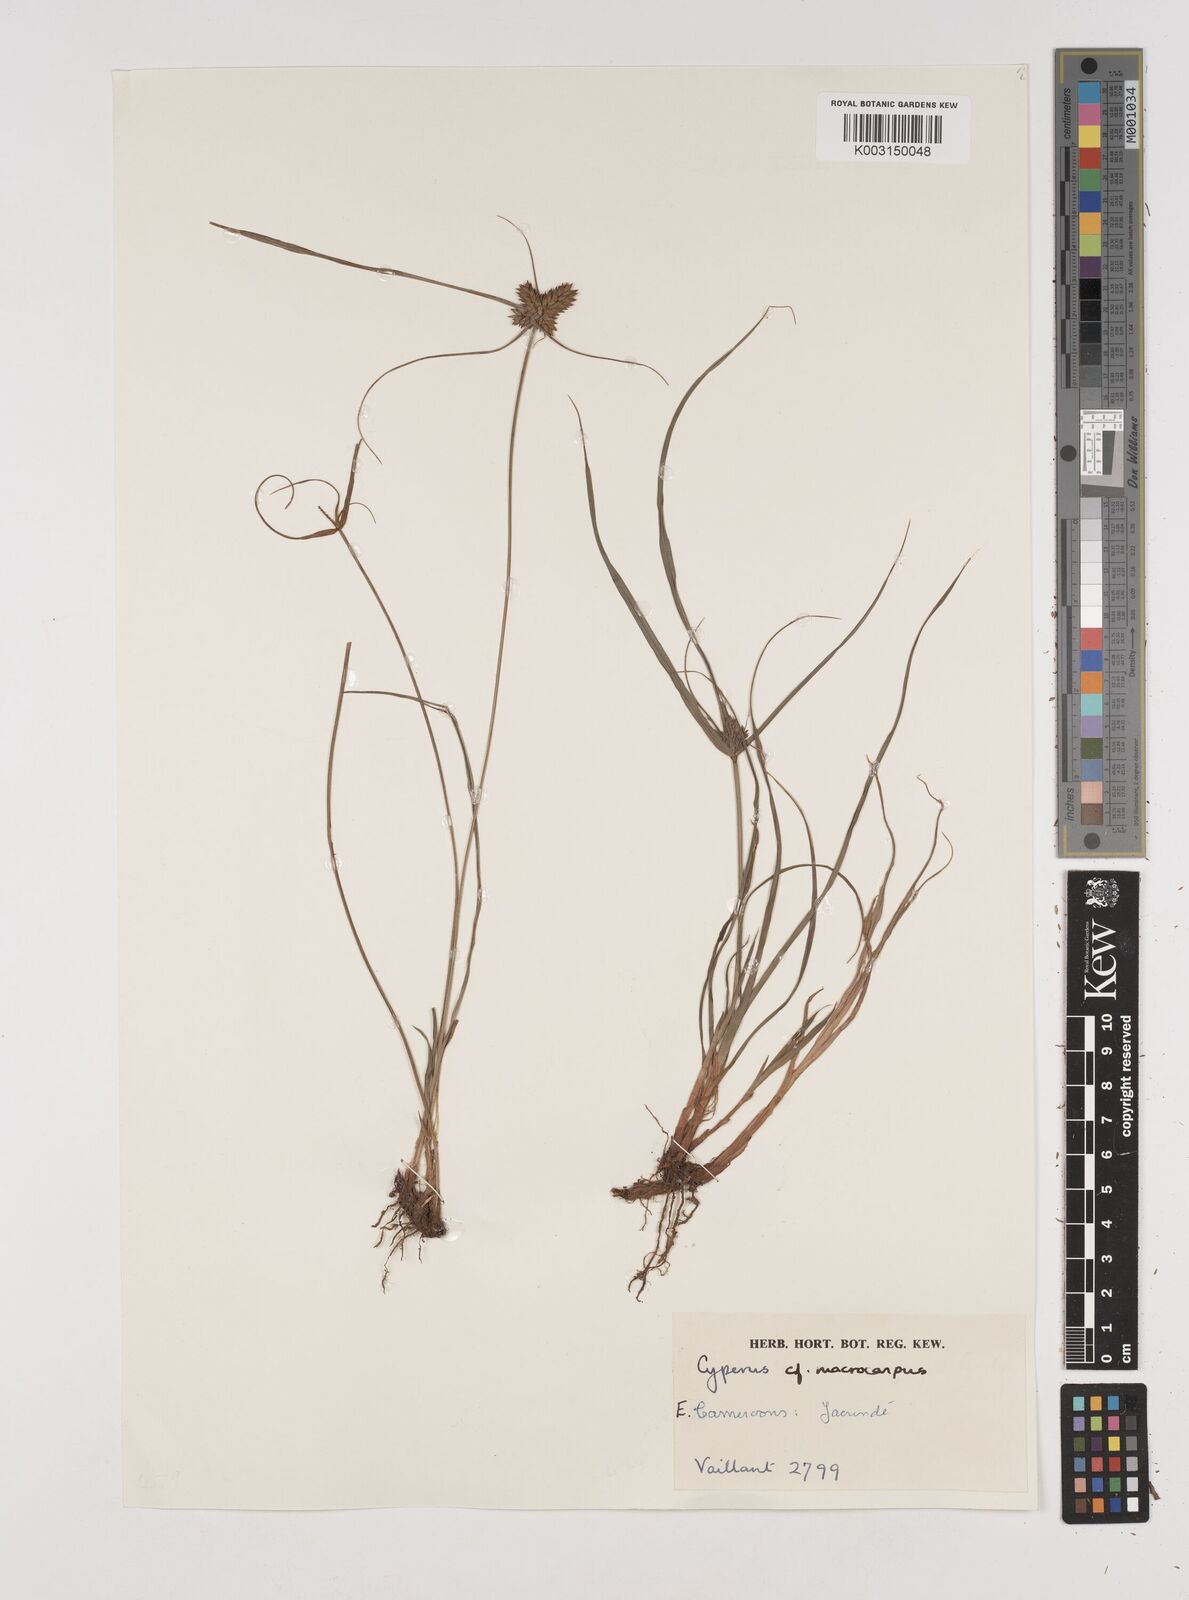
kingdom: Plantae
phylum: Tracheophyta
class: Liliopsida
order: Poales
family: Cyperaceae
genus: Cyperus
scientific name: Cyperus macrocarpus
